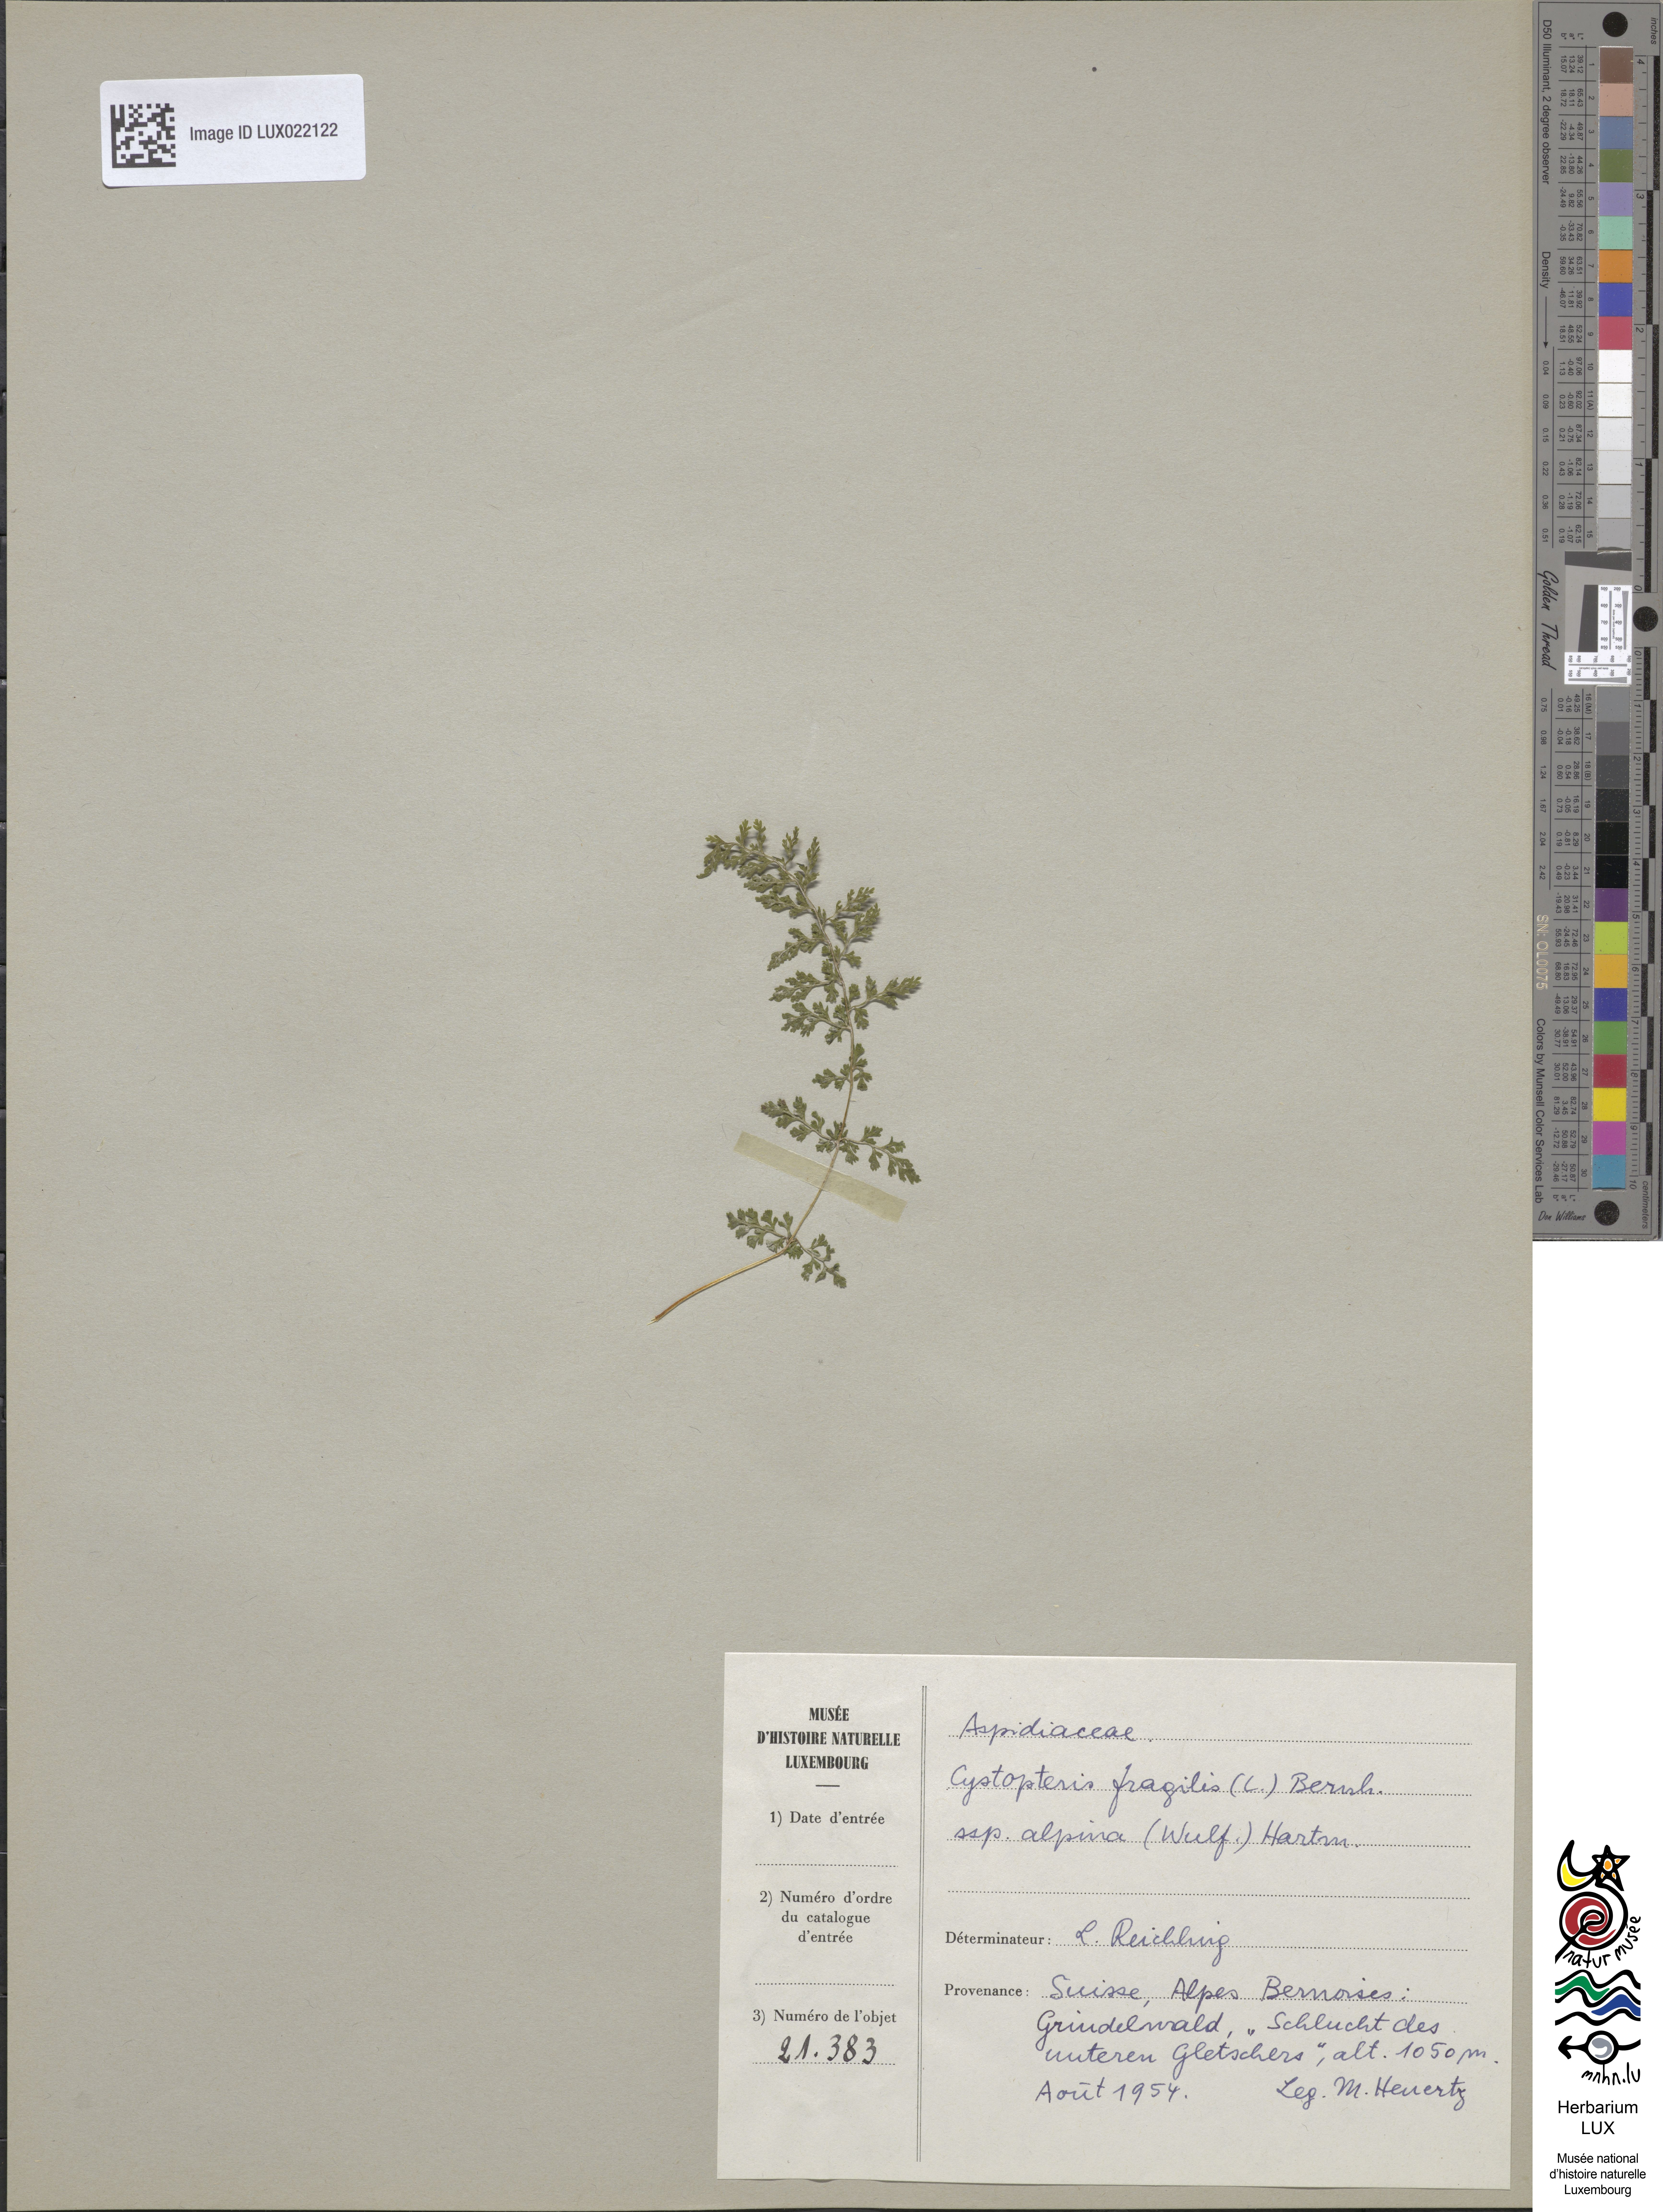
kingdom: Plantae
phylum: Tracheophyta
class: Polypodiopsida
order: Polypodiales
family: Cystopteridaceae
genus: Cystopteris
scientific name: Cystopteris alpina
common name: Alpine bladder-fern
